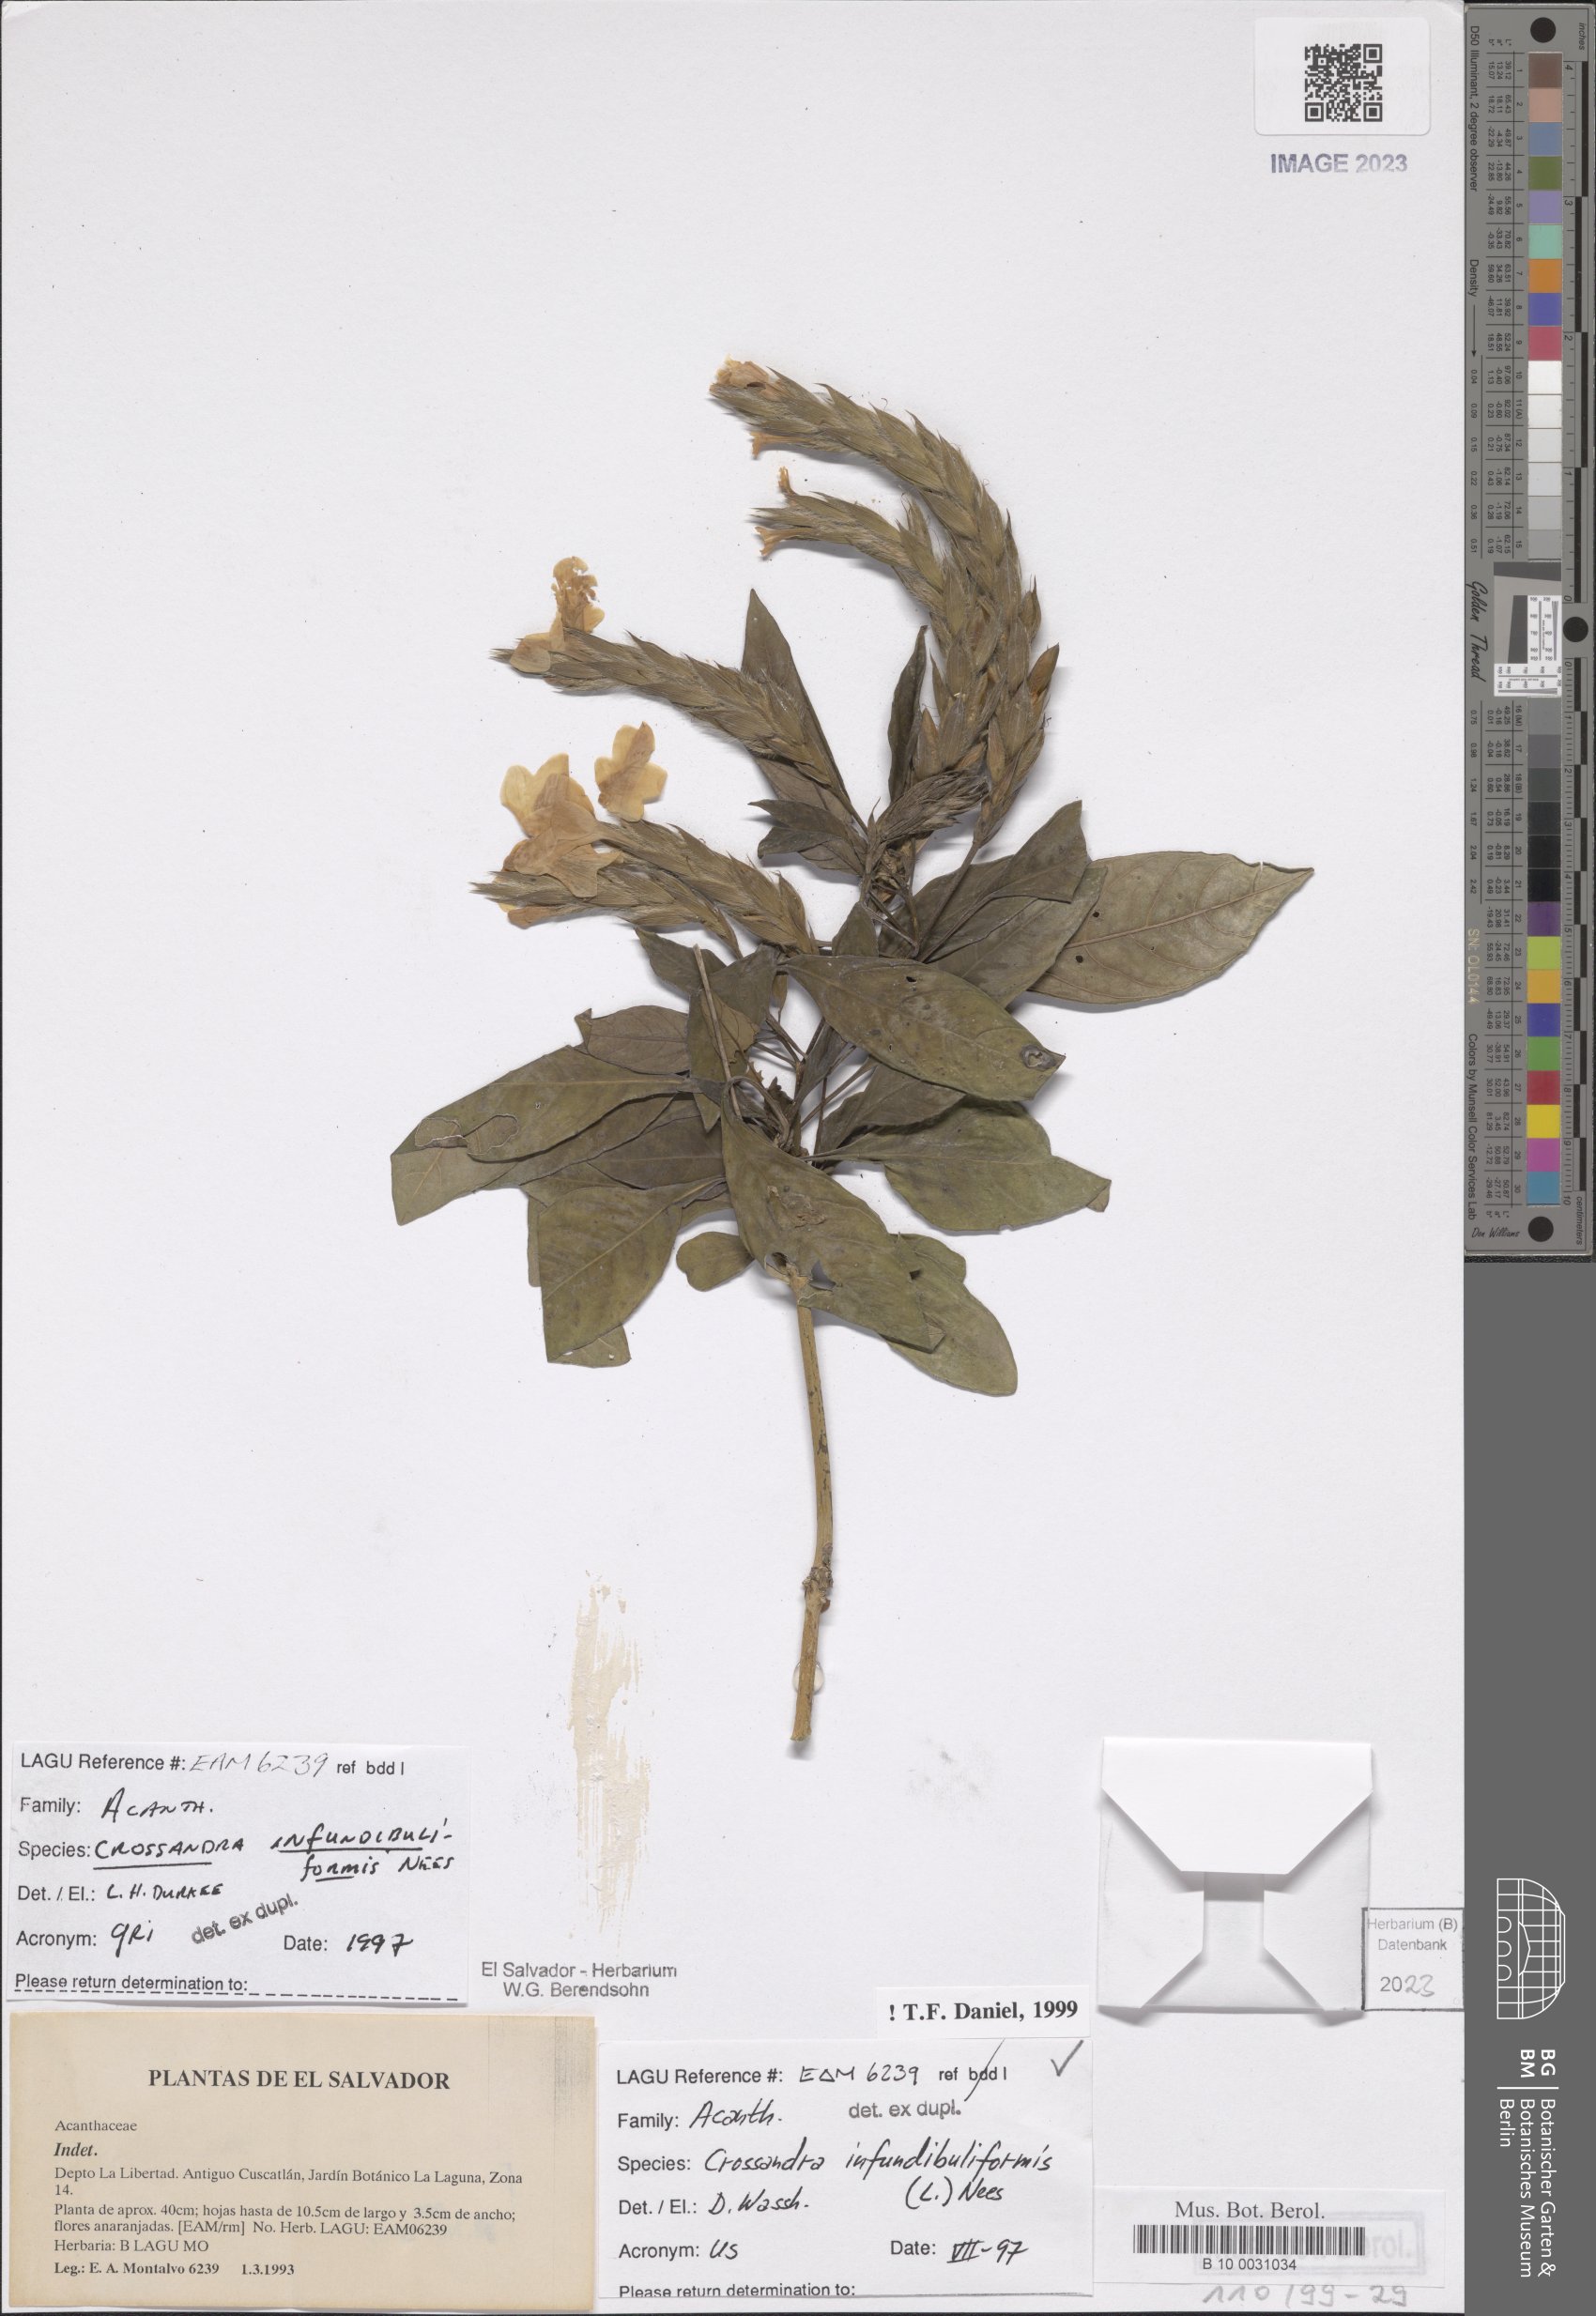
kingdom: Plantae
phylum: Tracheophyta
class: Magnoliopsida
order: Lamiales
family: Acanthaceae
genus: Crossandra
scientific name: Crossandra infundibuliformis
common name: Firecracker-flower
